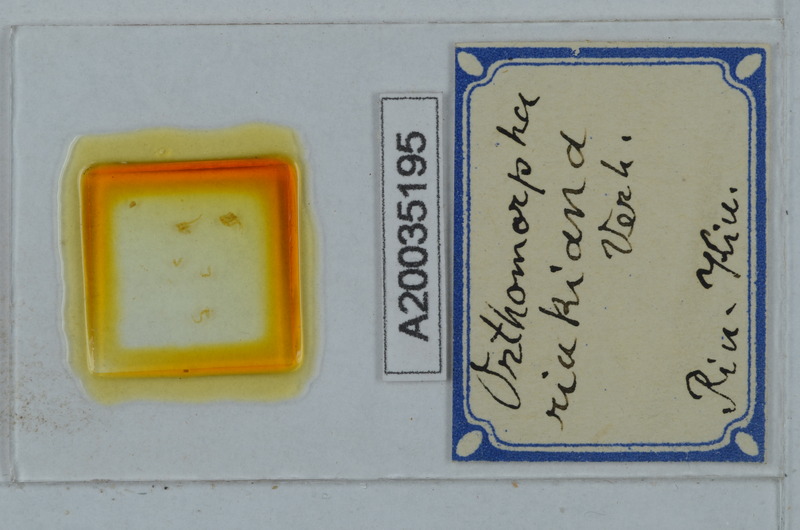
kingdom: Animalia
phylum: Arthropoda
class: Diplopoda
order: Polydesmida
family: Paradoxosomatidae
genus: Orthomorpha
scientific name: Orthomorpha
